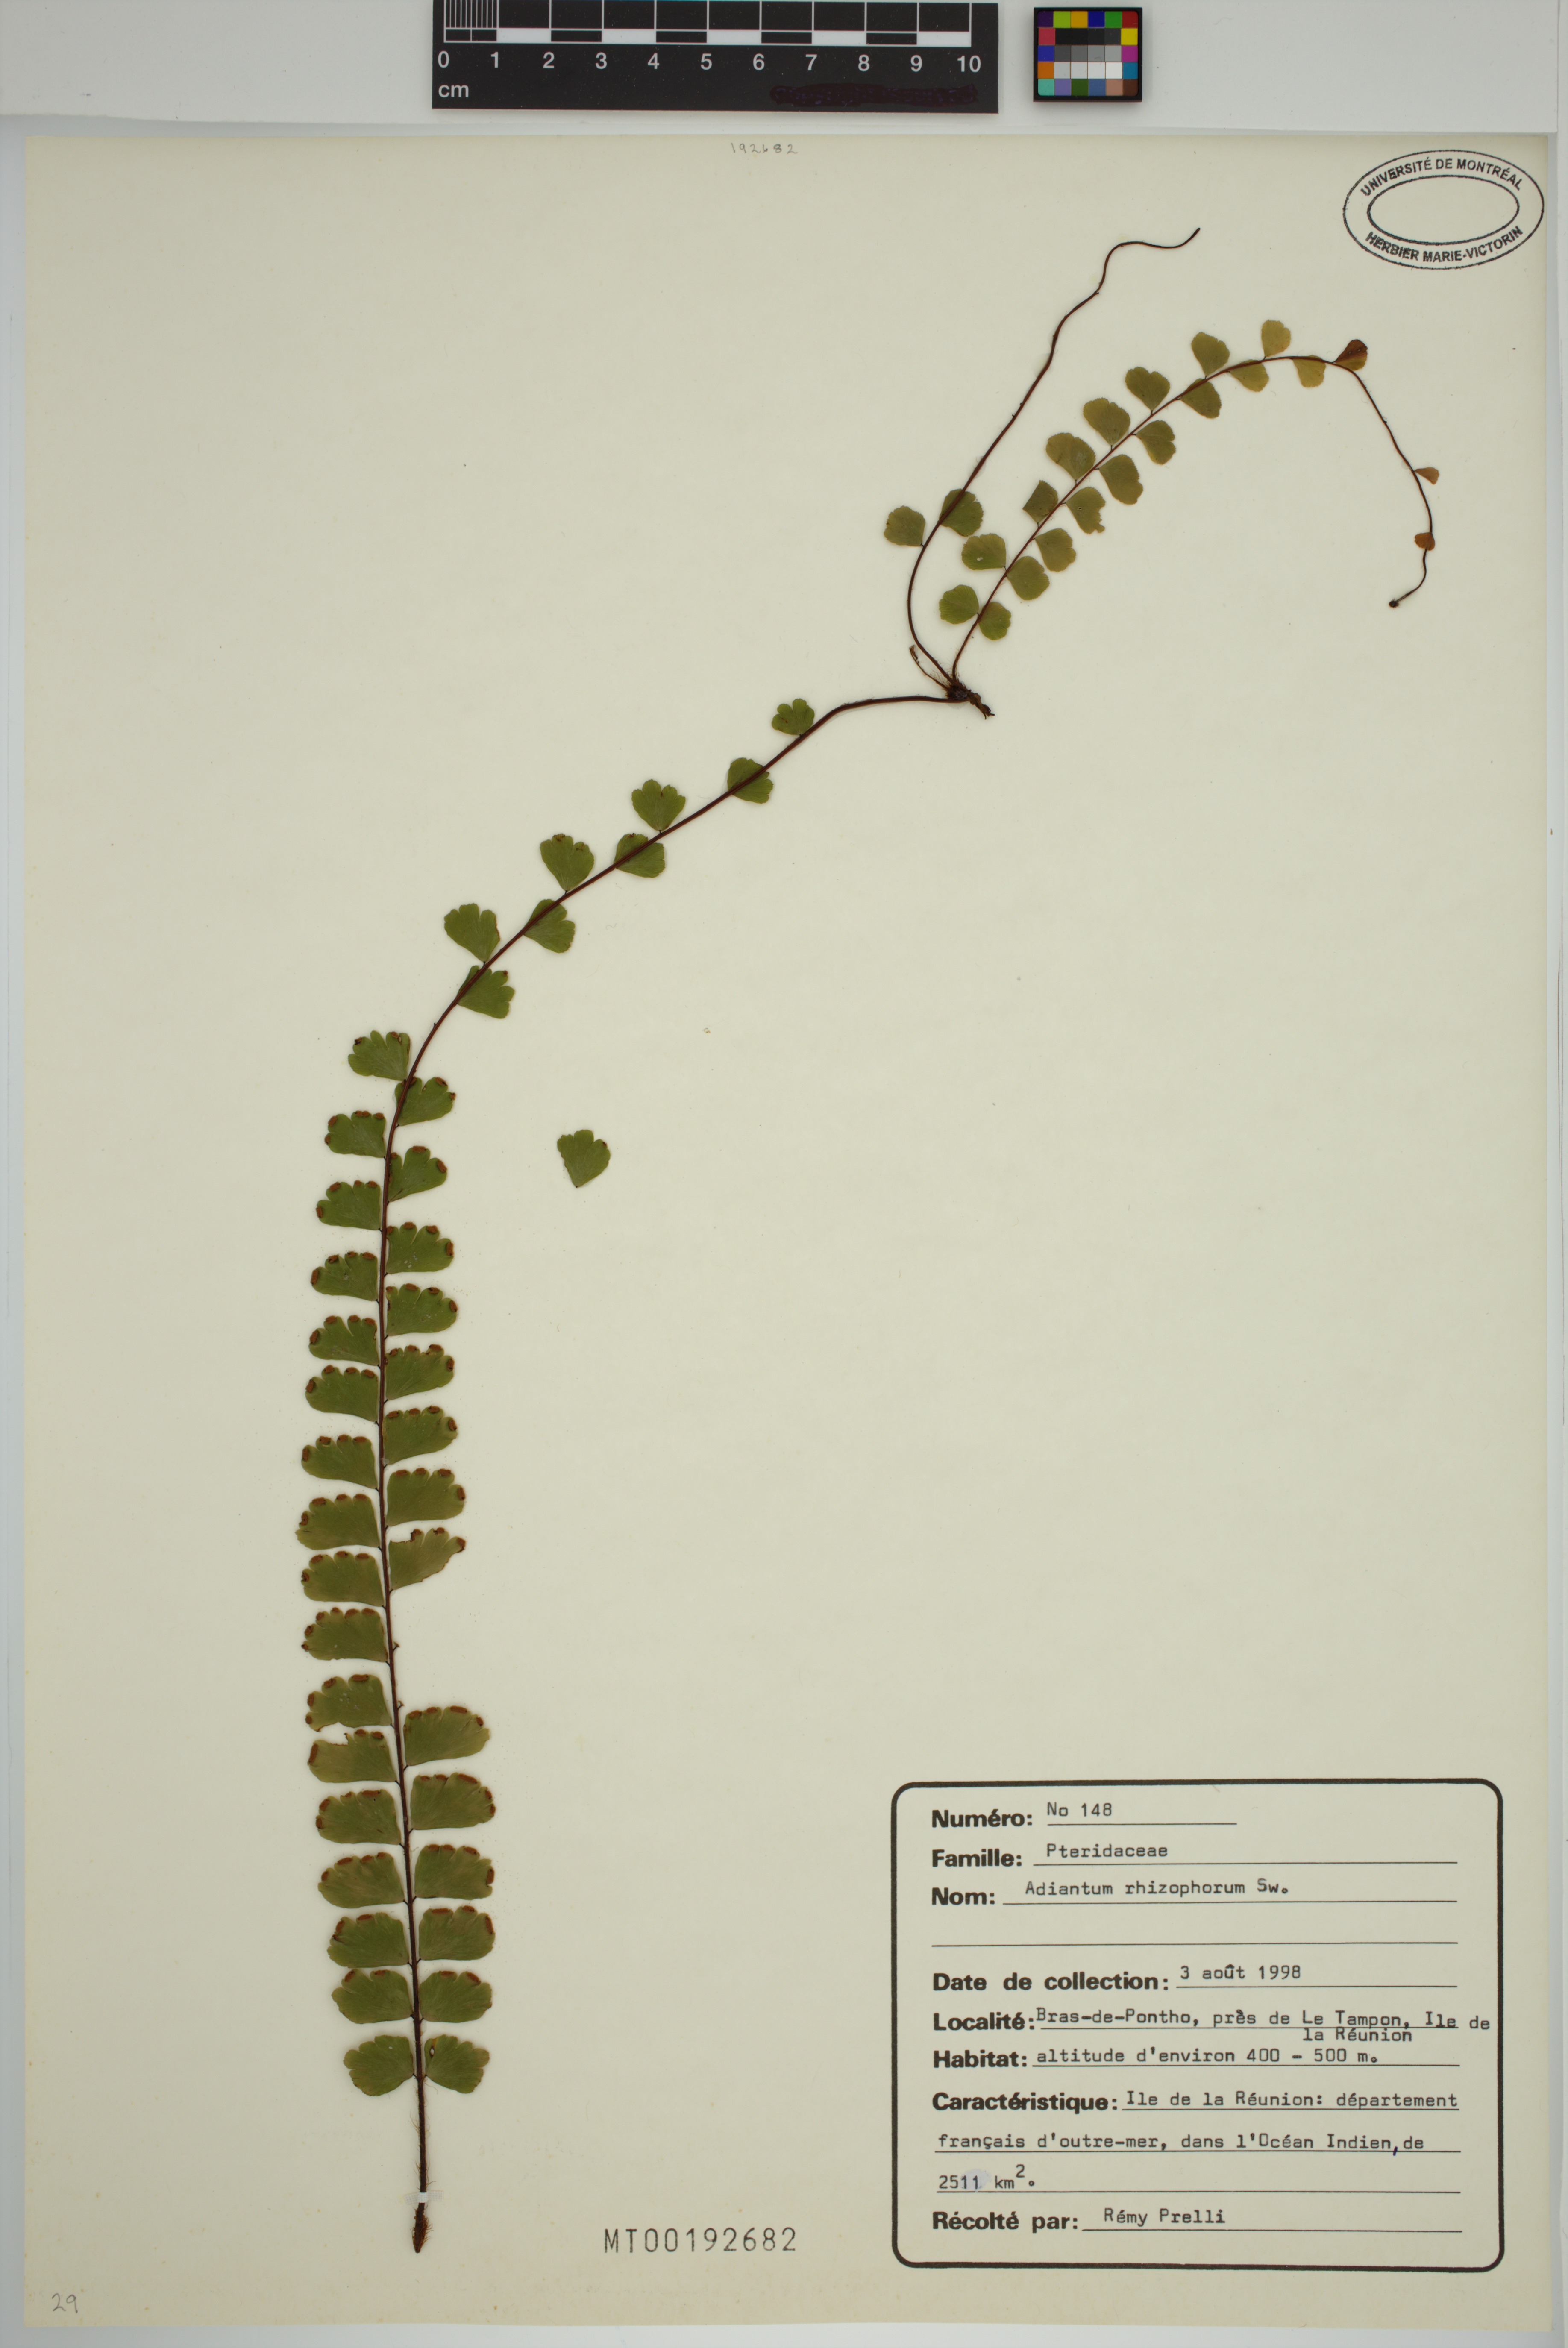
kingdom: Plantae
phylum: Tracheophyta
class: Polypodiopsida
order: Polypodiales
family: Pteridaceae
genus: Adiantum
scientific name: Adiantum rhizophorum
